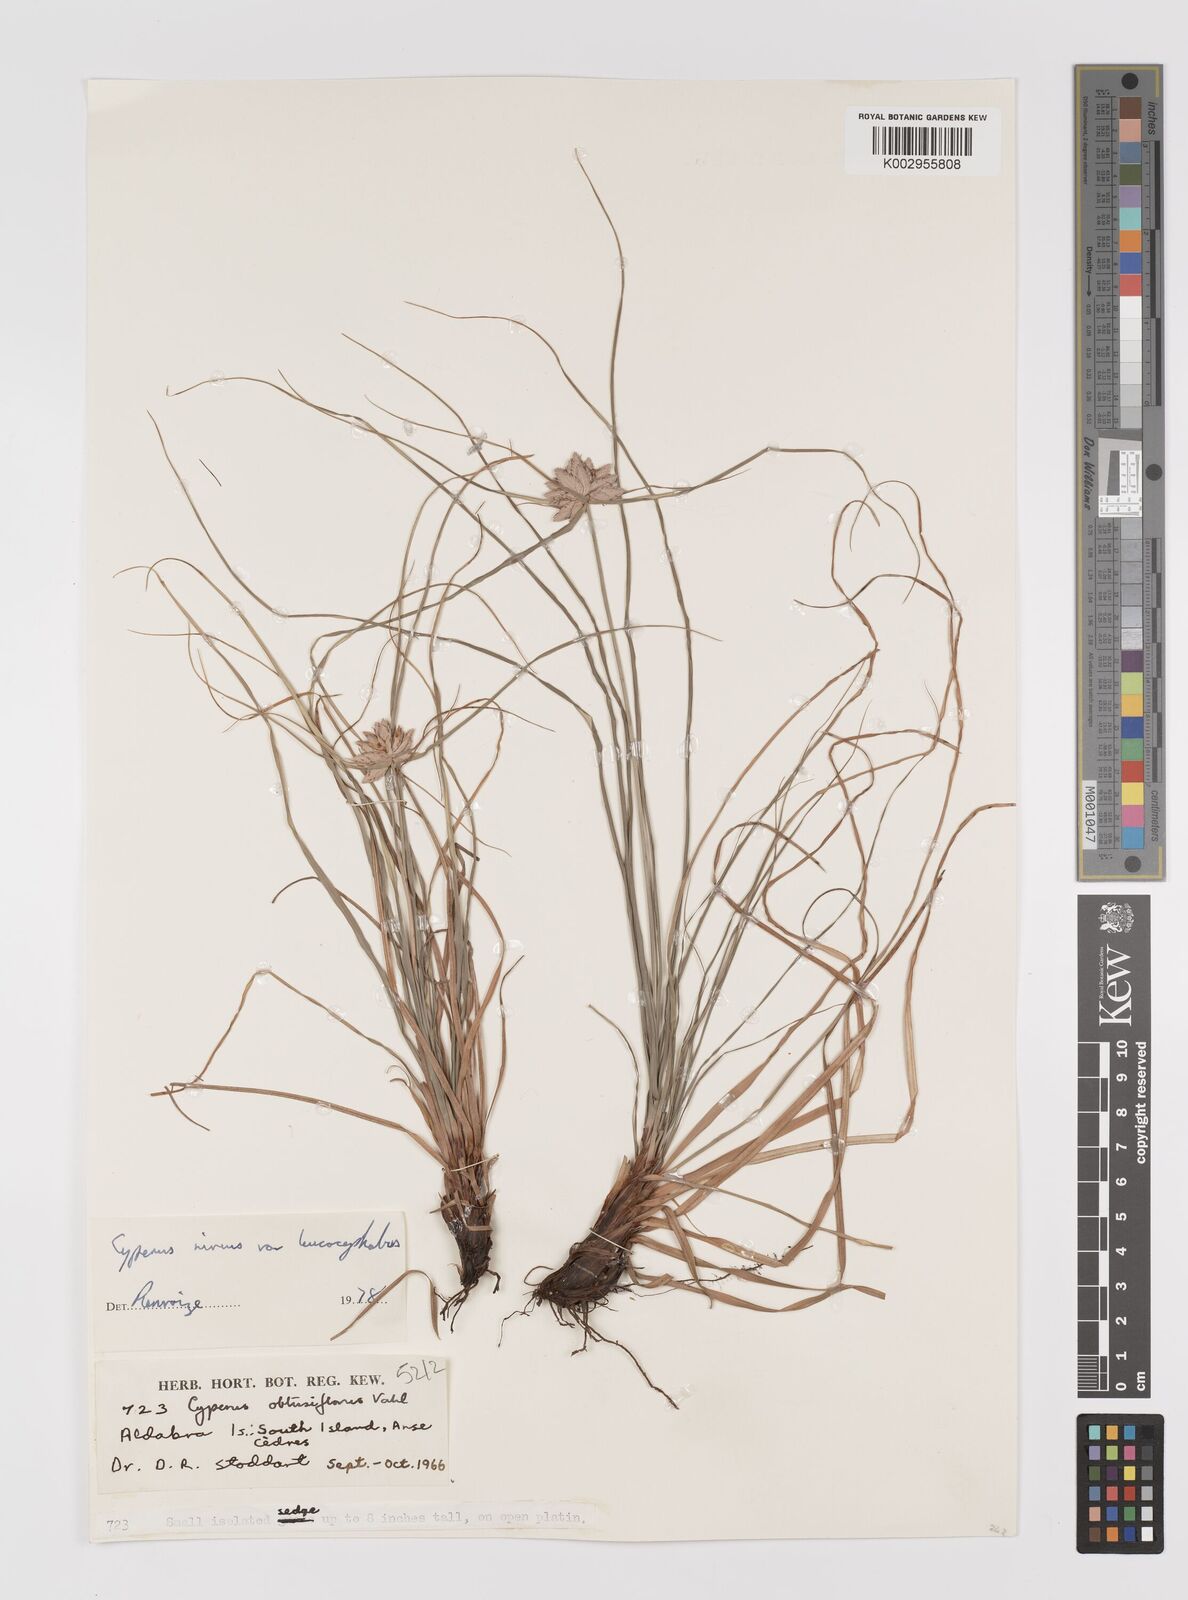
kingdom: Plantae
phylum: Tracheophyta
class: Liliopsida
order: Poales
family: Cyperaceae
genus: Cyperus
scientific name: Cyperus niveus
